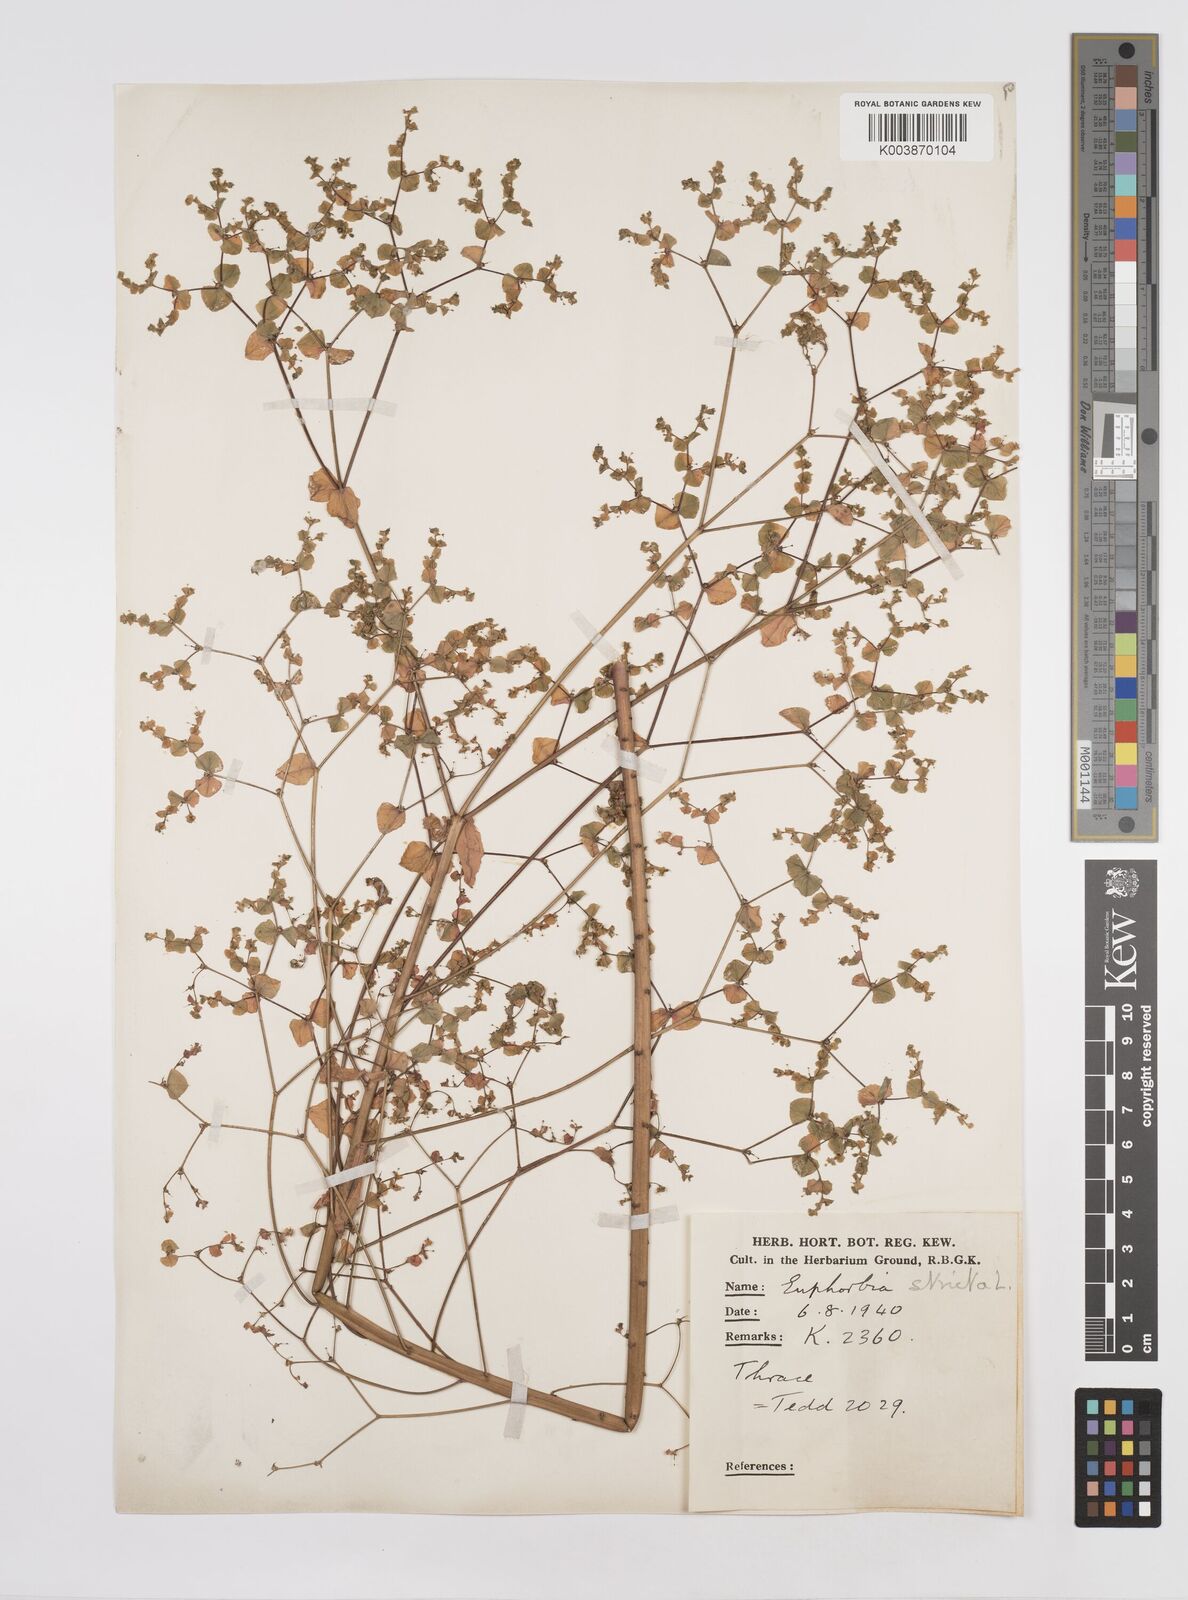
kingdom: Plantae
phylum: Tracheophyta
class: Magnoliopsida
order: Malpighiales
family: Euphorbiaceae
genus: Euphorbia
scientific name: Euphorbia stricta
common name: Upright spurge
